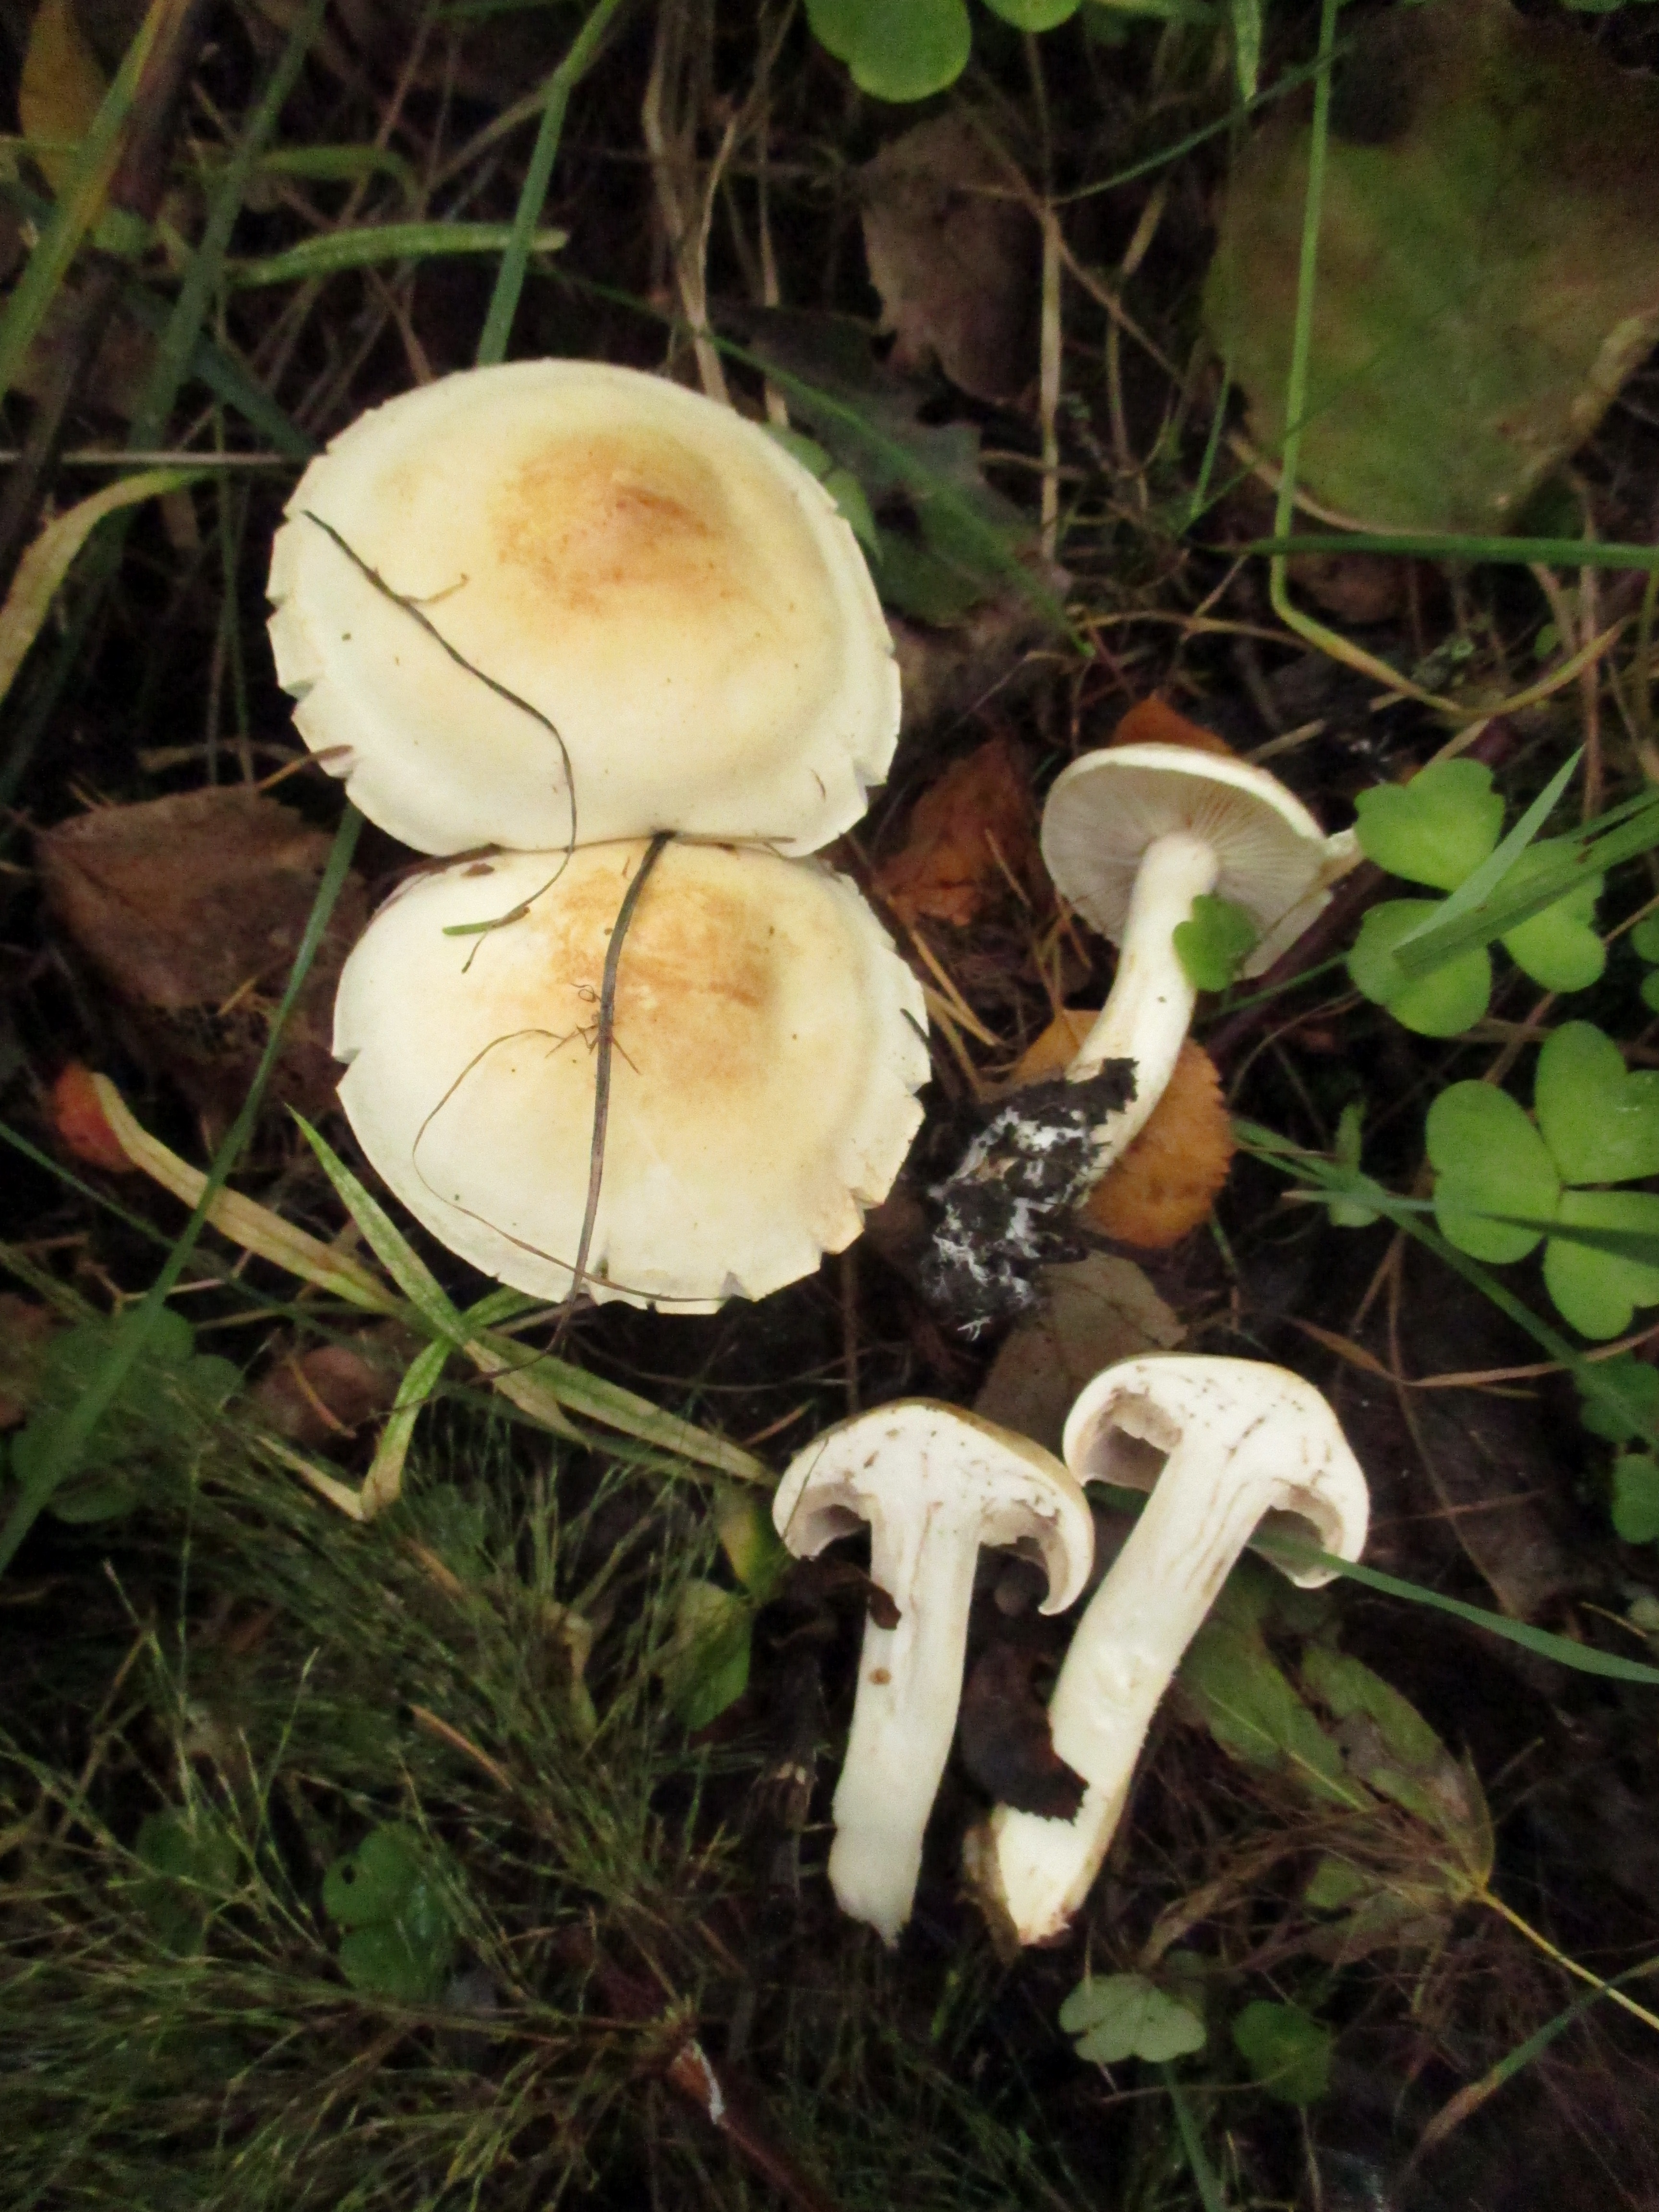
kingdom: Fungi
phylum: Basidiomycota
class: Agaricomycetes
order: Agaricales
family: Tricholomataceae
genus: Tricholoma
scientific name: Tricholoma stiparophyllum
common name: Chemical knight
